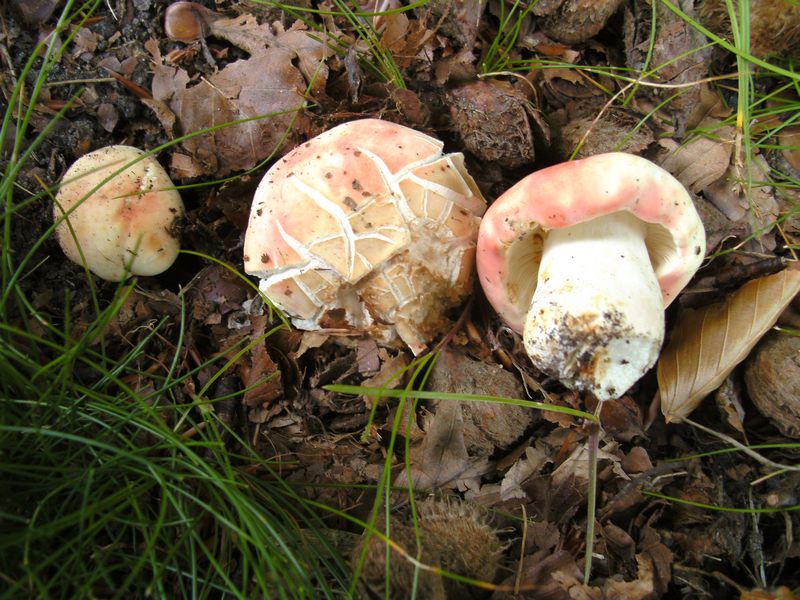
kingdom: Fungi
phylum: Basidiomycota
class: Agaricomycetes
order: Russulales
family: Russulaceae
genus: Russula
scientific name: Russula rosea
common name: fastkødet skørhat
